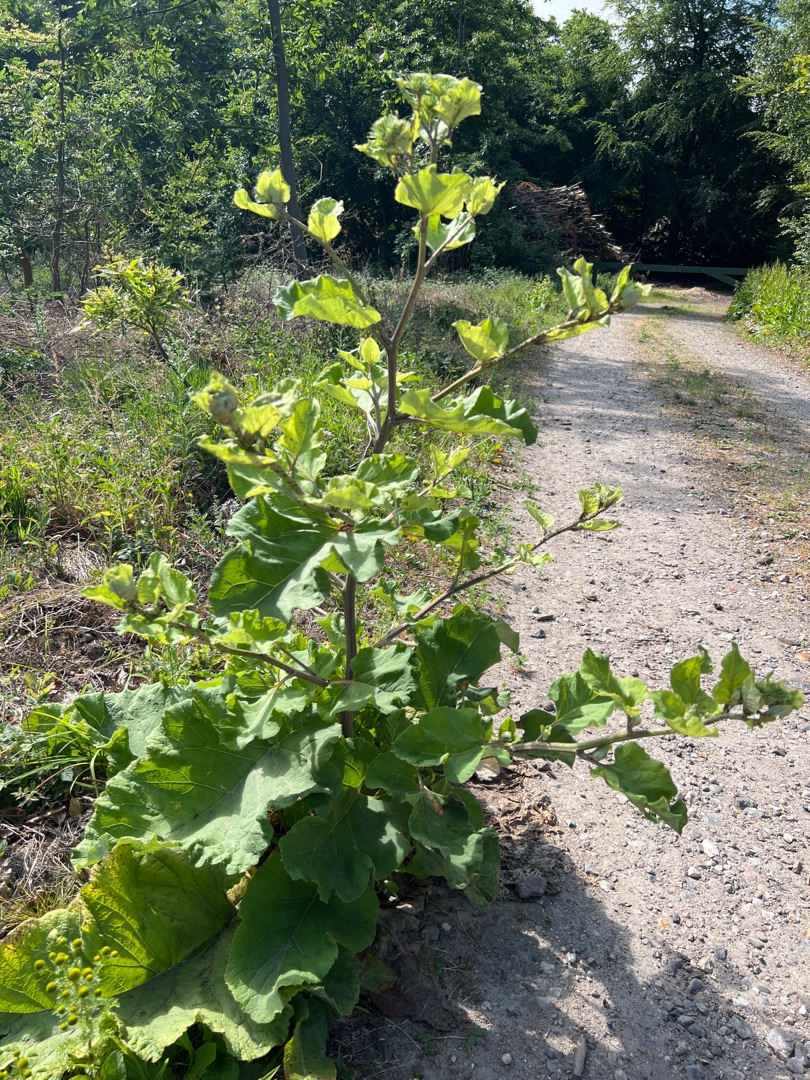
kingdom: Plantae
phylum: Tracheophyta
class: Magnoliopsida
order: Asterales
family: Asteraceae
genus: Arctium
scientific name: Arctium lappa
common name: Glat burre
